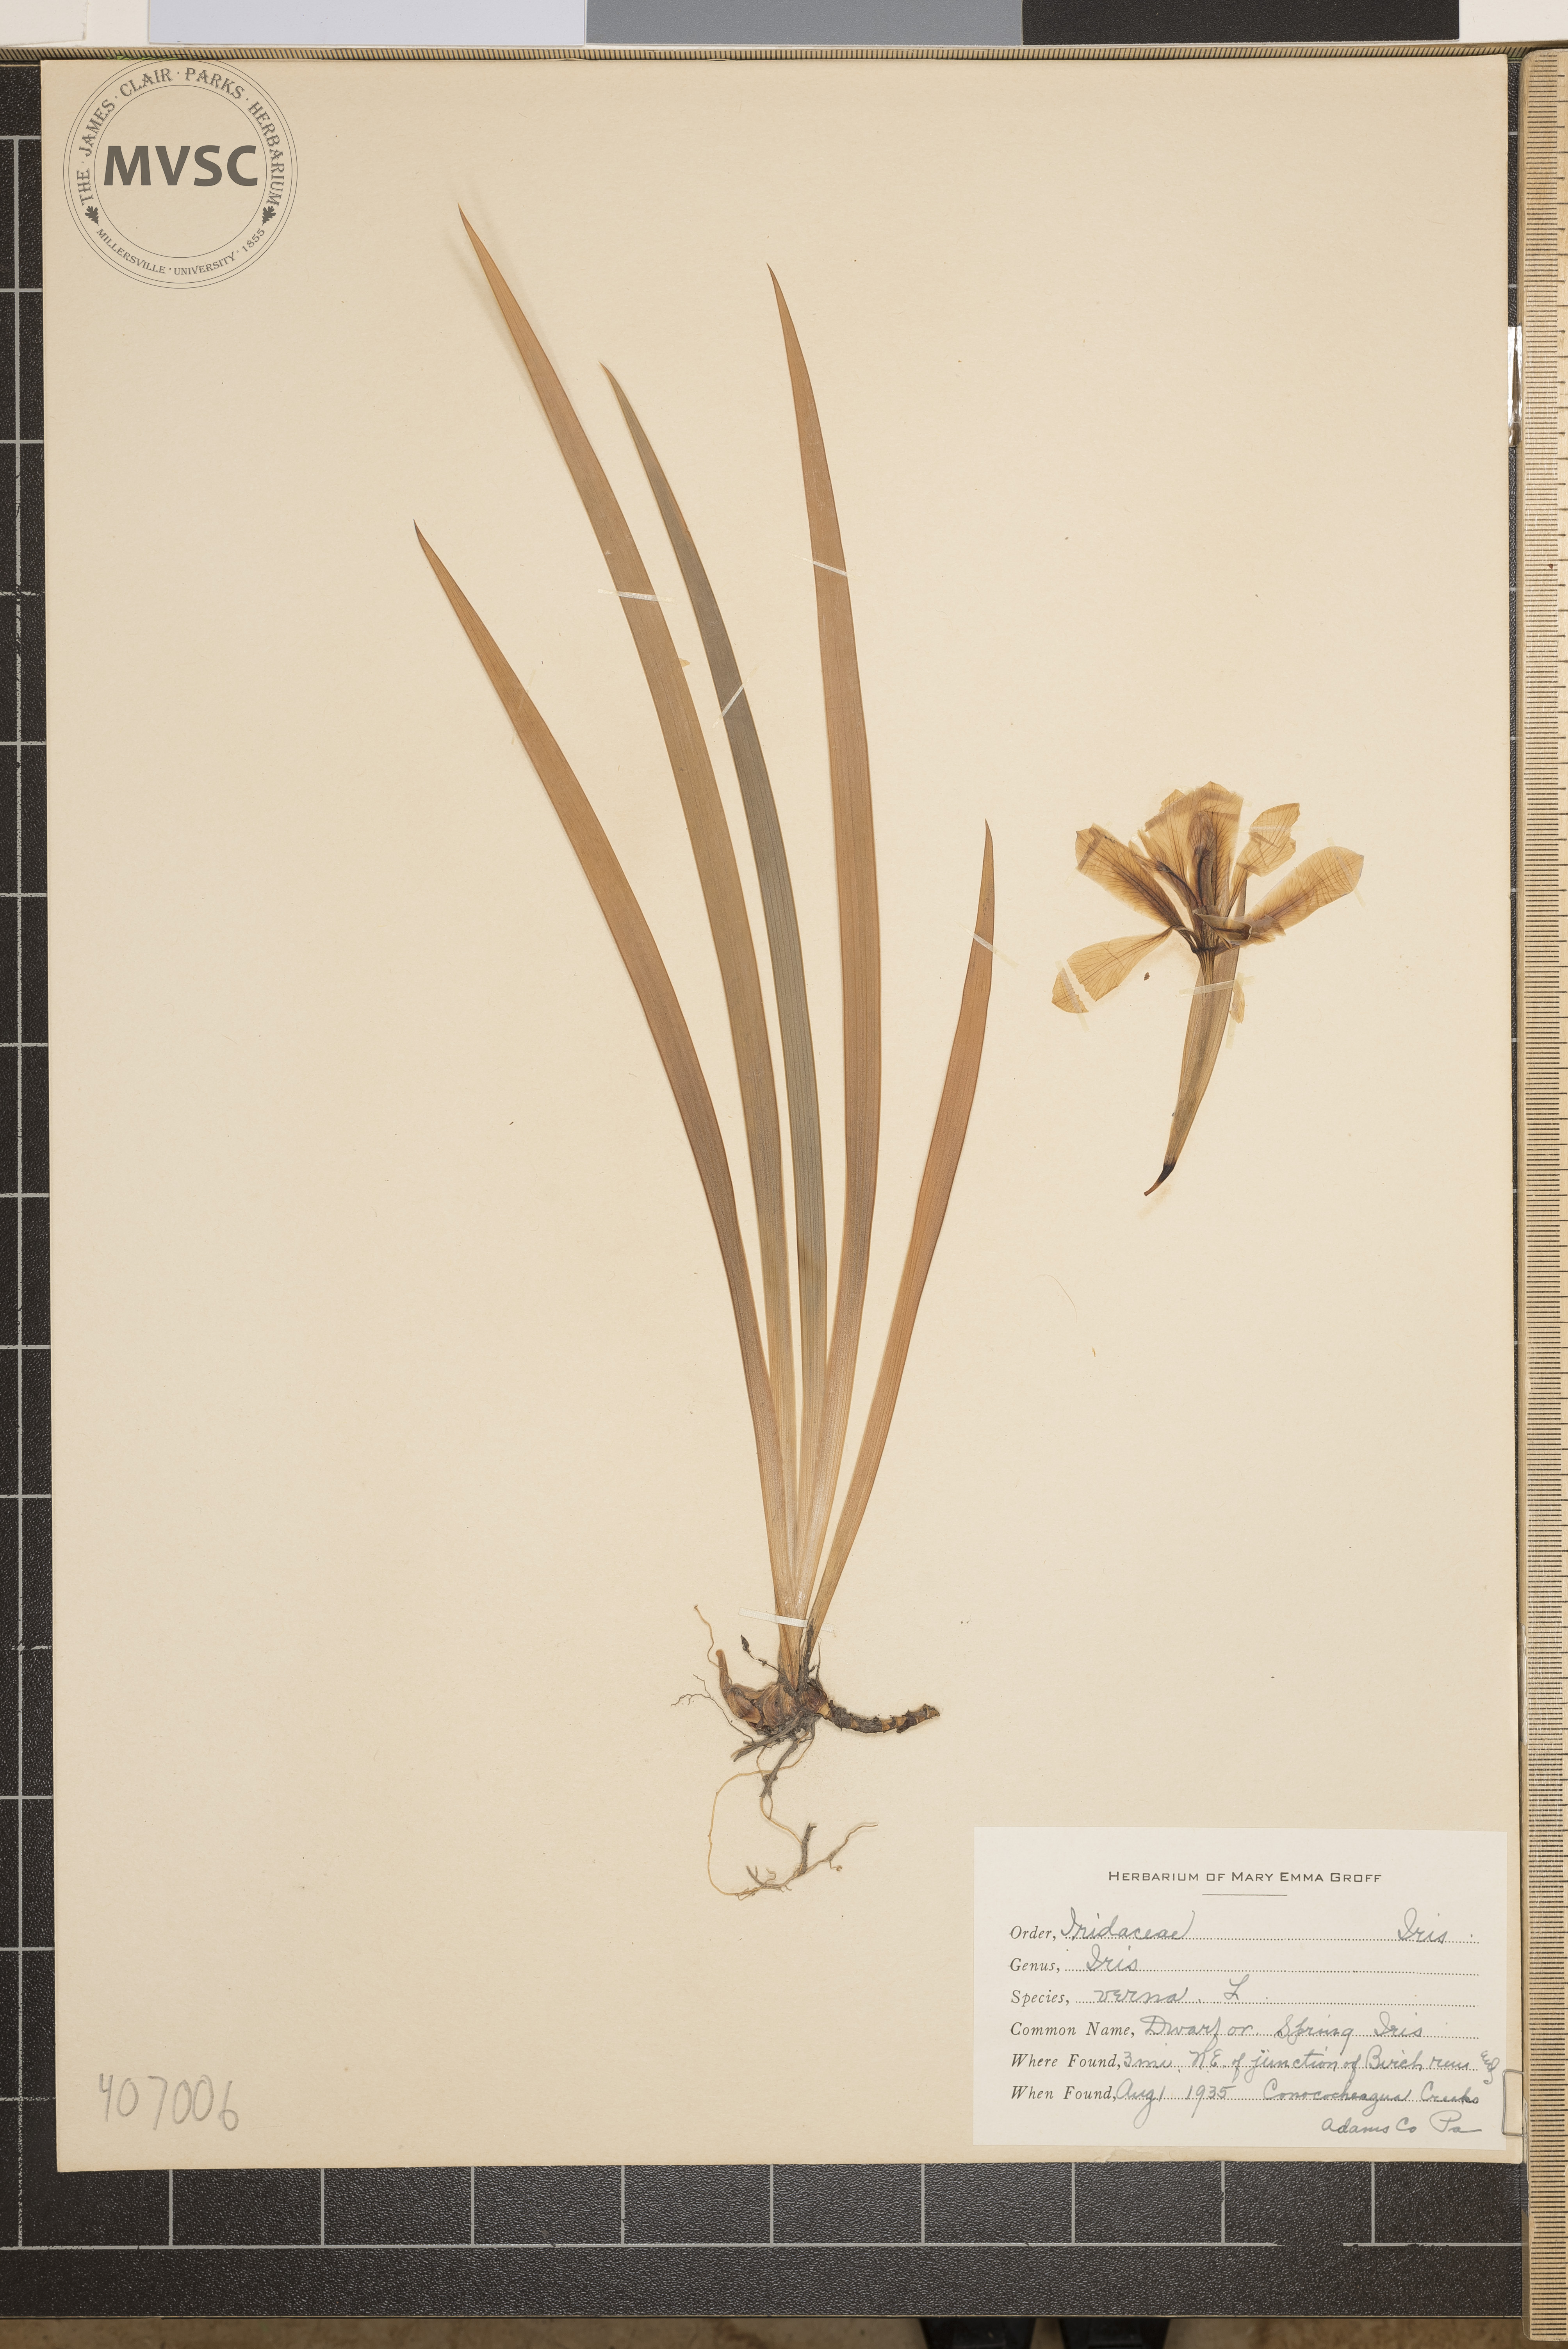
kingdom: Plantae
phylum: Tracheophyta
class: Liliopsida
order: Asparagales
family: Iridaceae
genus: Iris
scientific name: Iris verna
